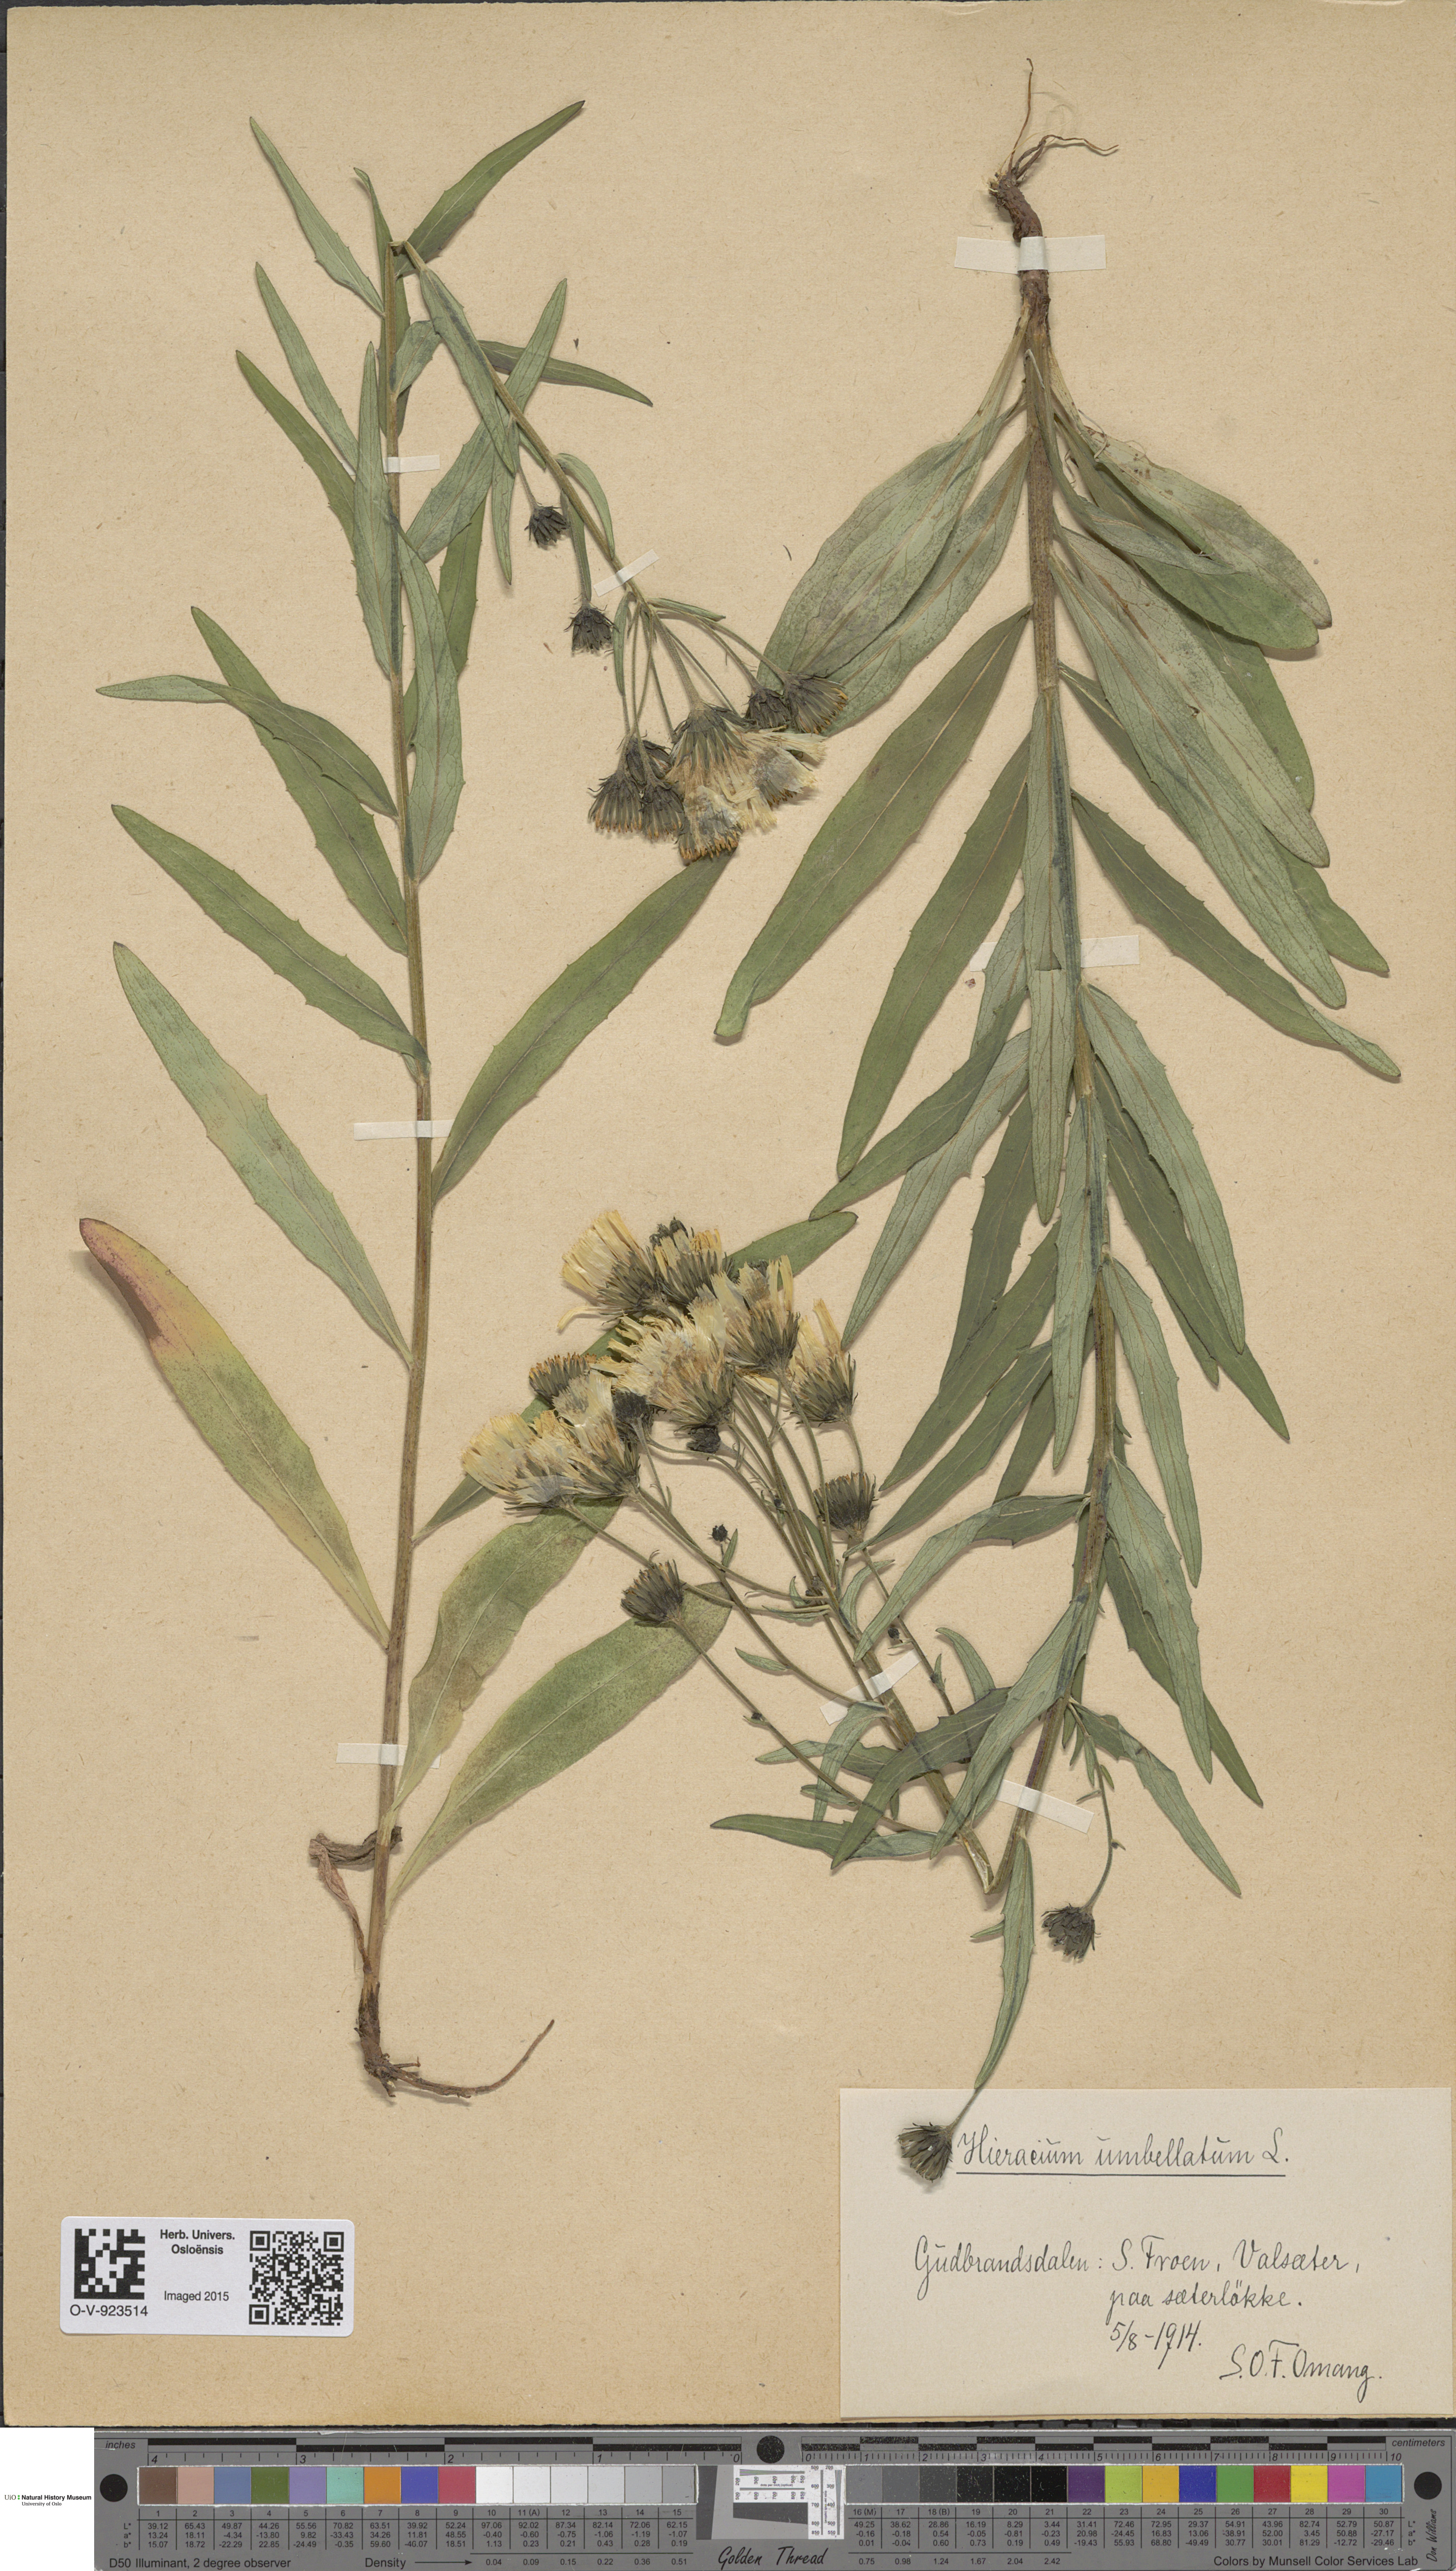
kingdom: Plantae
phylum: Tracheophyta
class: Magnoliopsida
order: Asterales
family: Asteraceae
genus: Hieracium
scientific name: Hieracium umbellatum
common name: Northern hawkweed
